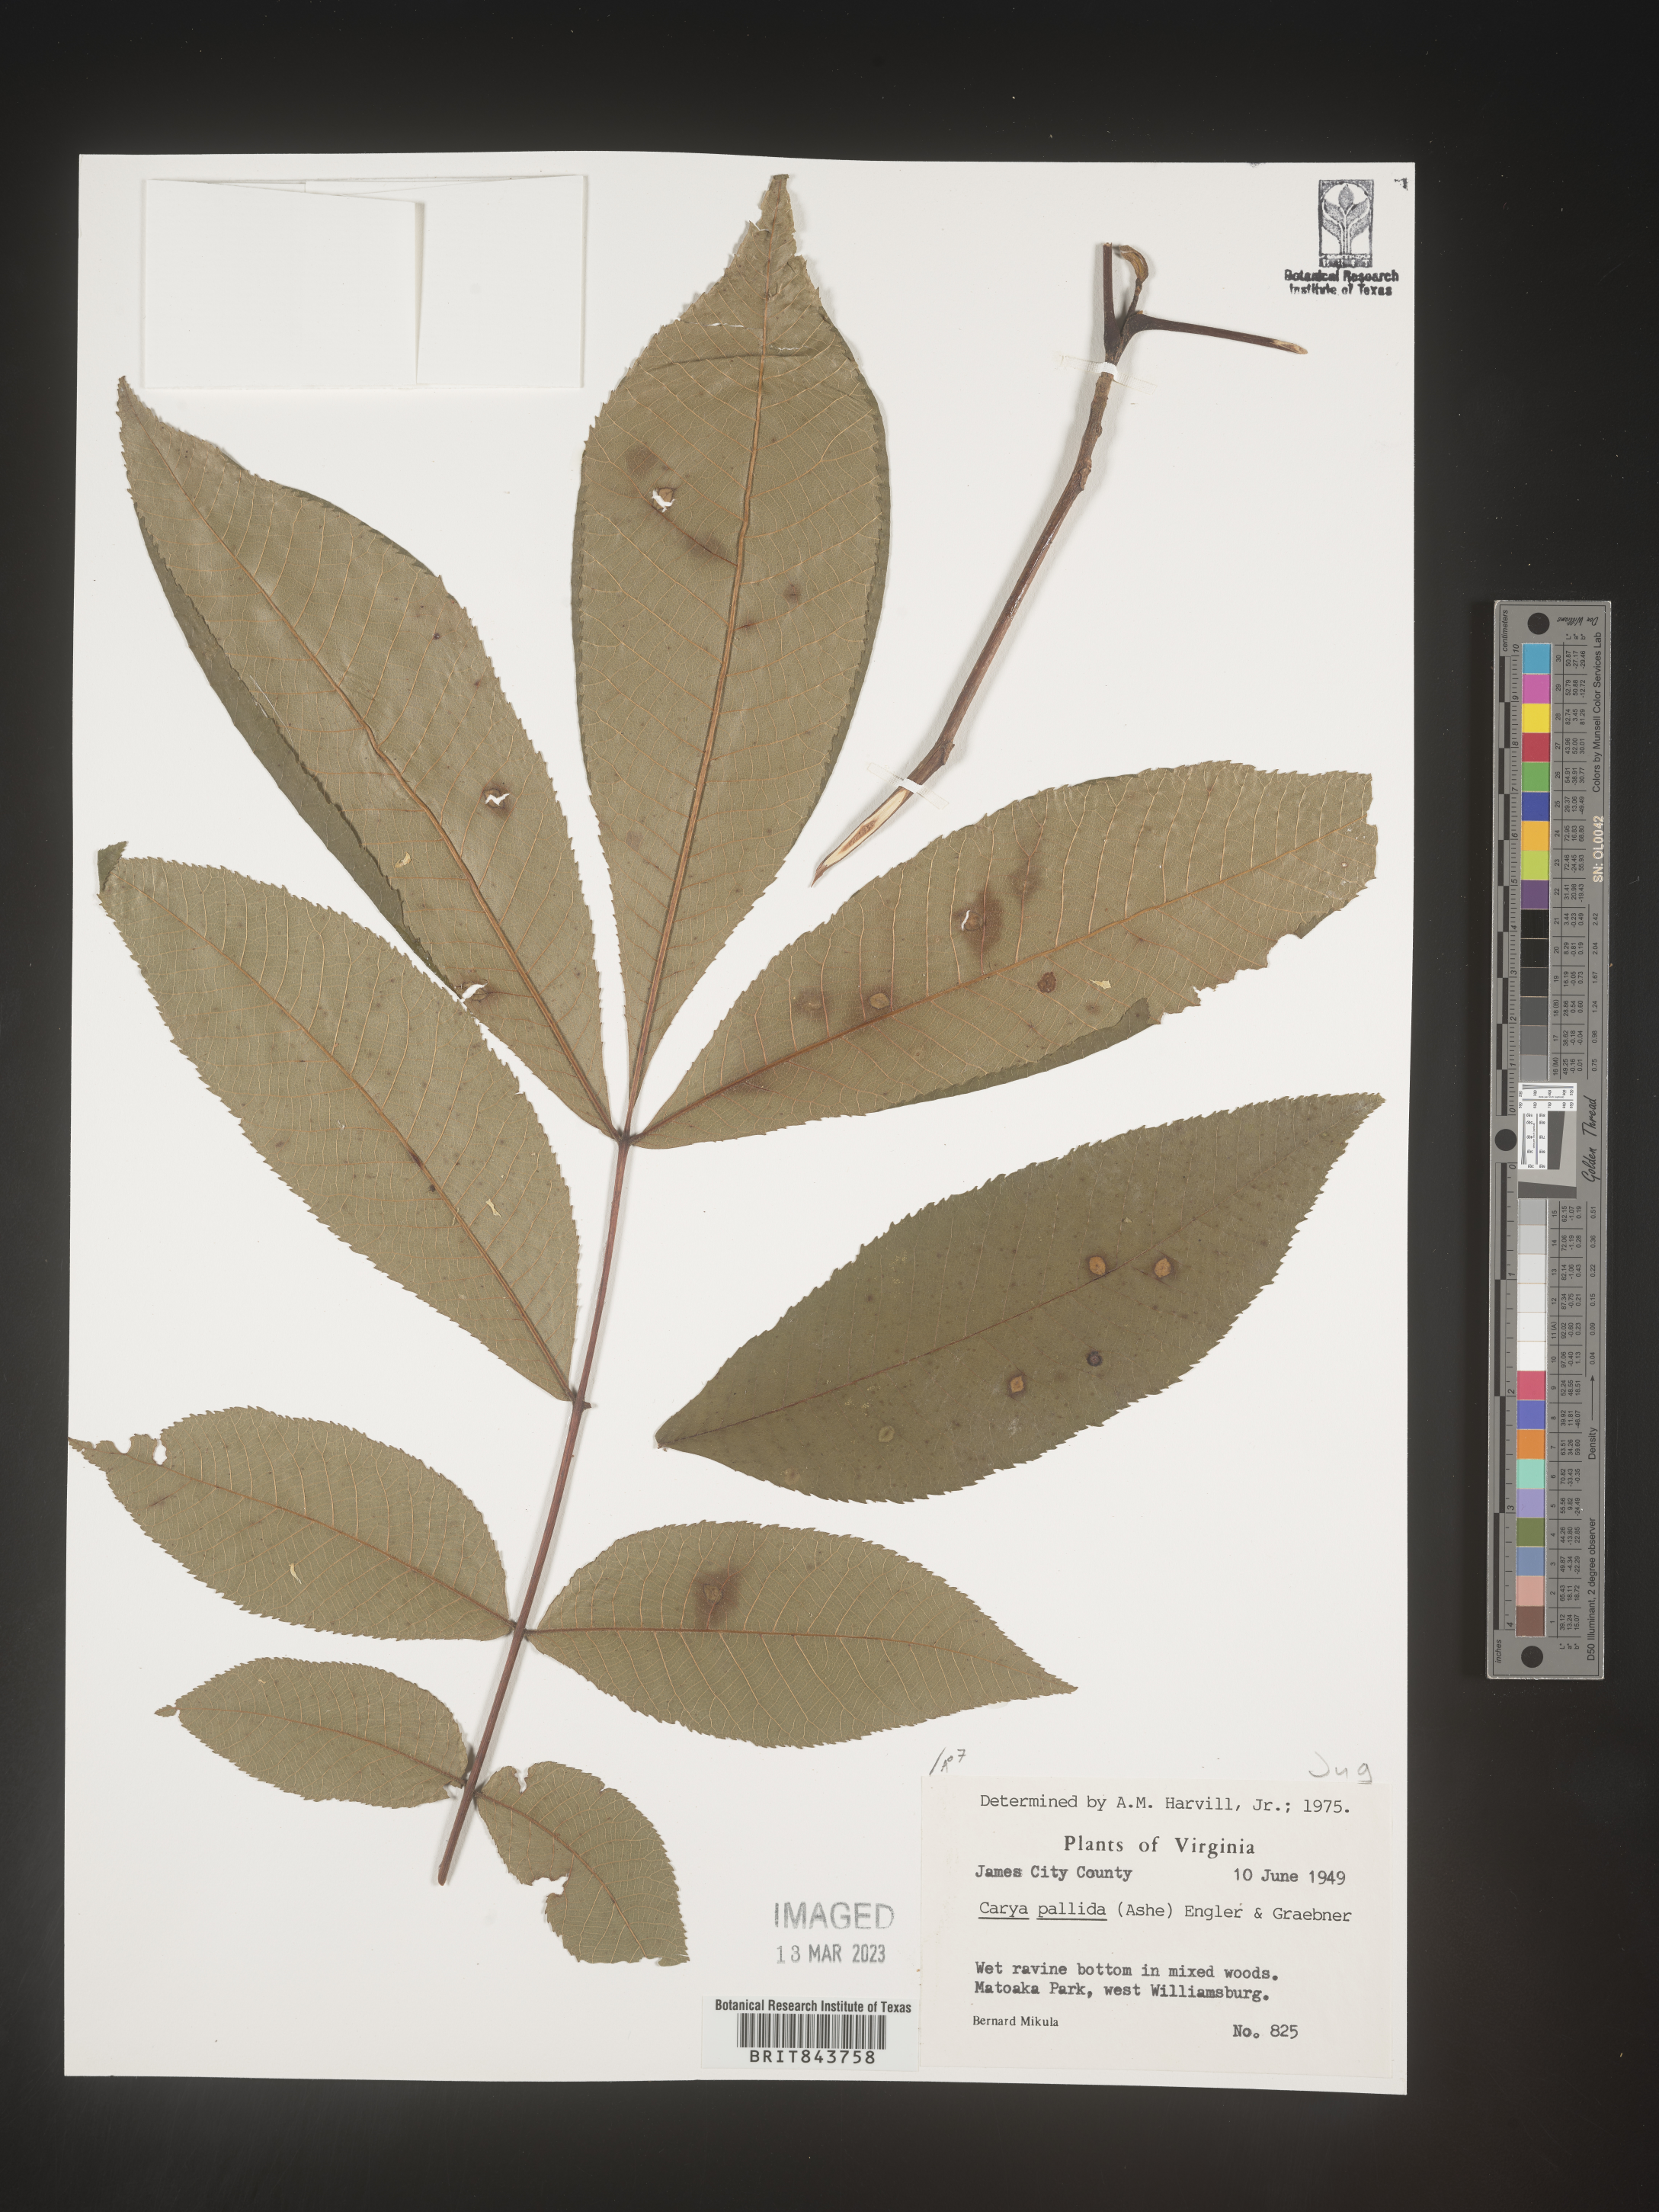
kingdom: Plantae
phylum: Tracheophyta
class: Magnoliopsida
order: Fagales
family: Juglandaceae
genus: Carya
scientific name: Carya pallida
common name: Sand hickory
